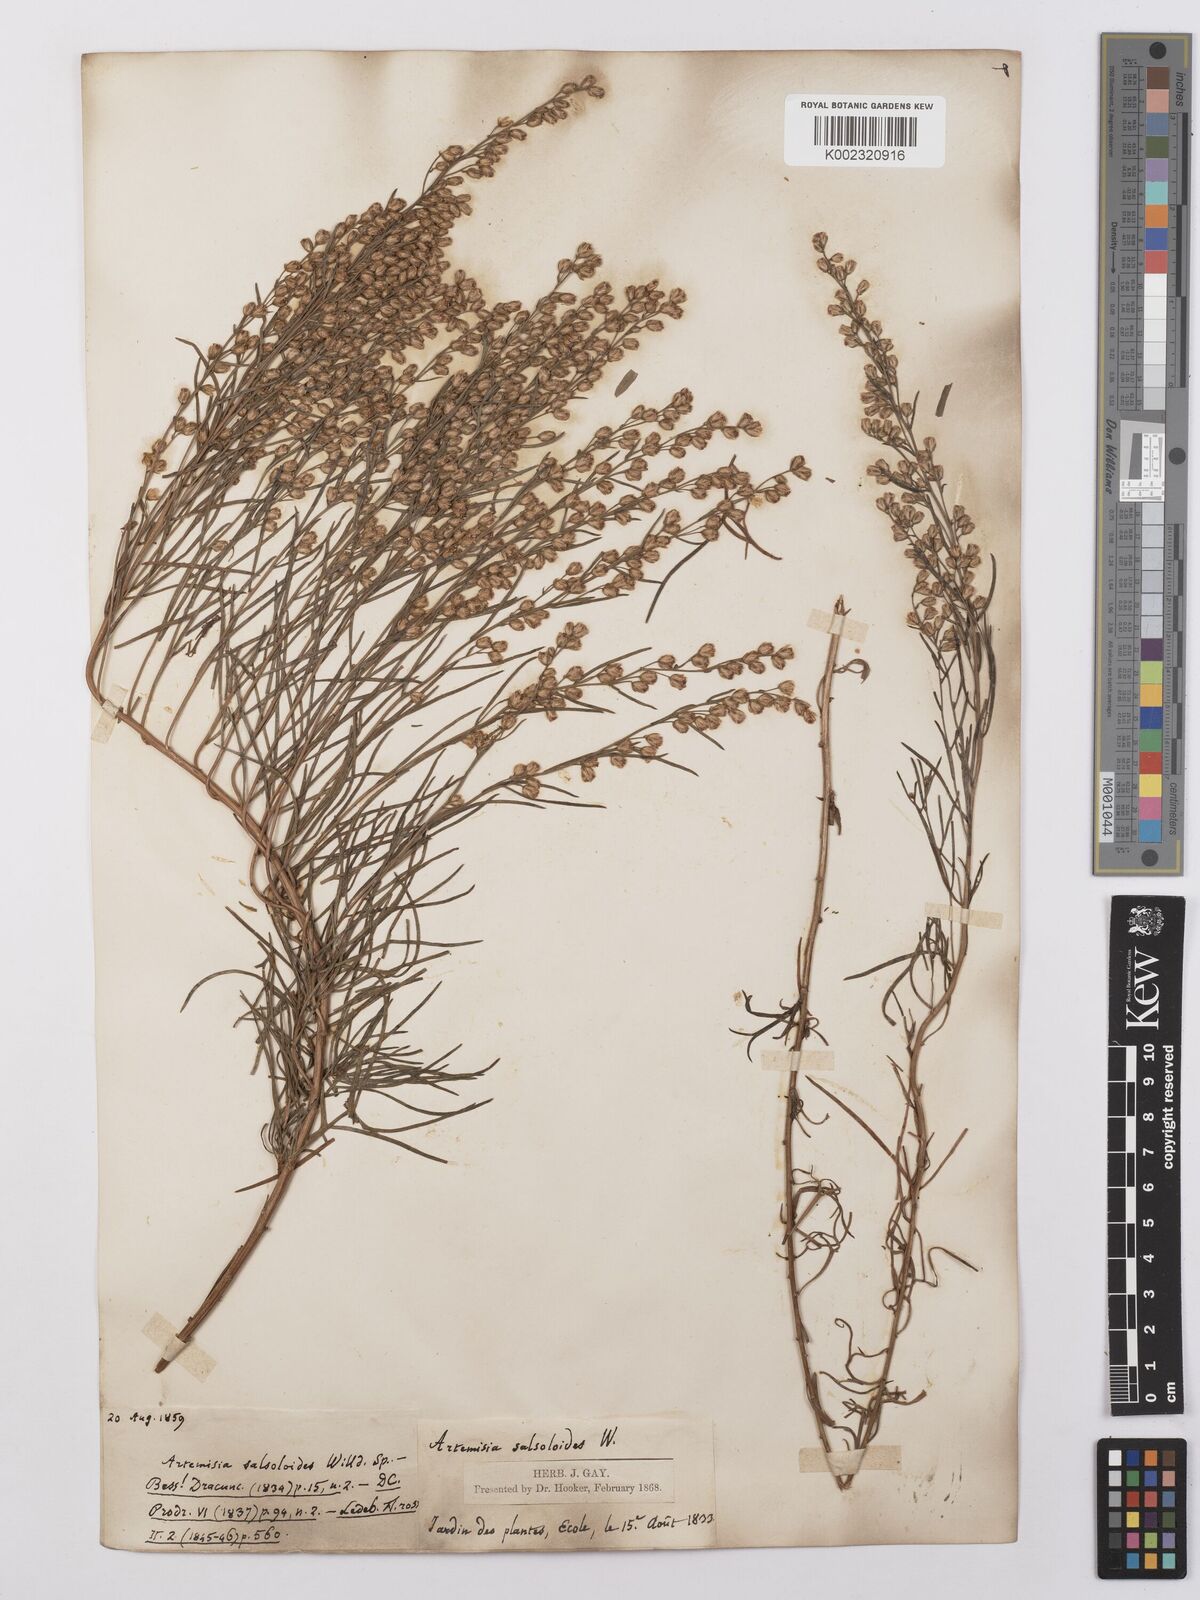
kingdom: Plantae
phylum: Tracheophyta
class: Magnoliopsida
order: Asterales
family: Asteraceae
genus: Artemisia
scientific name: Artemisia salsoloides
